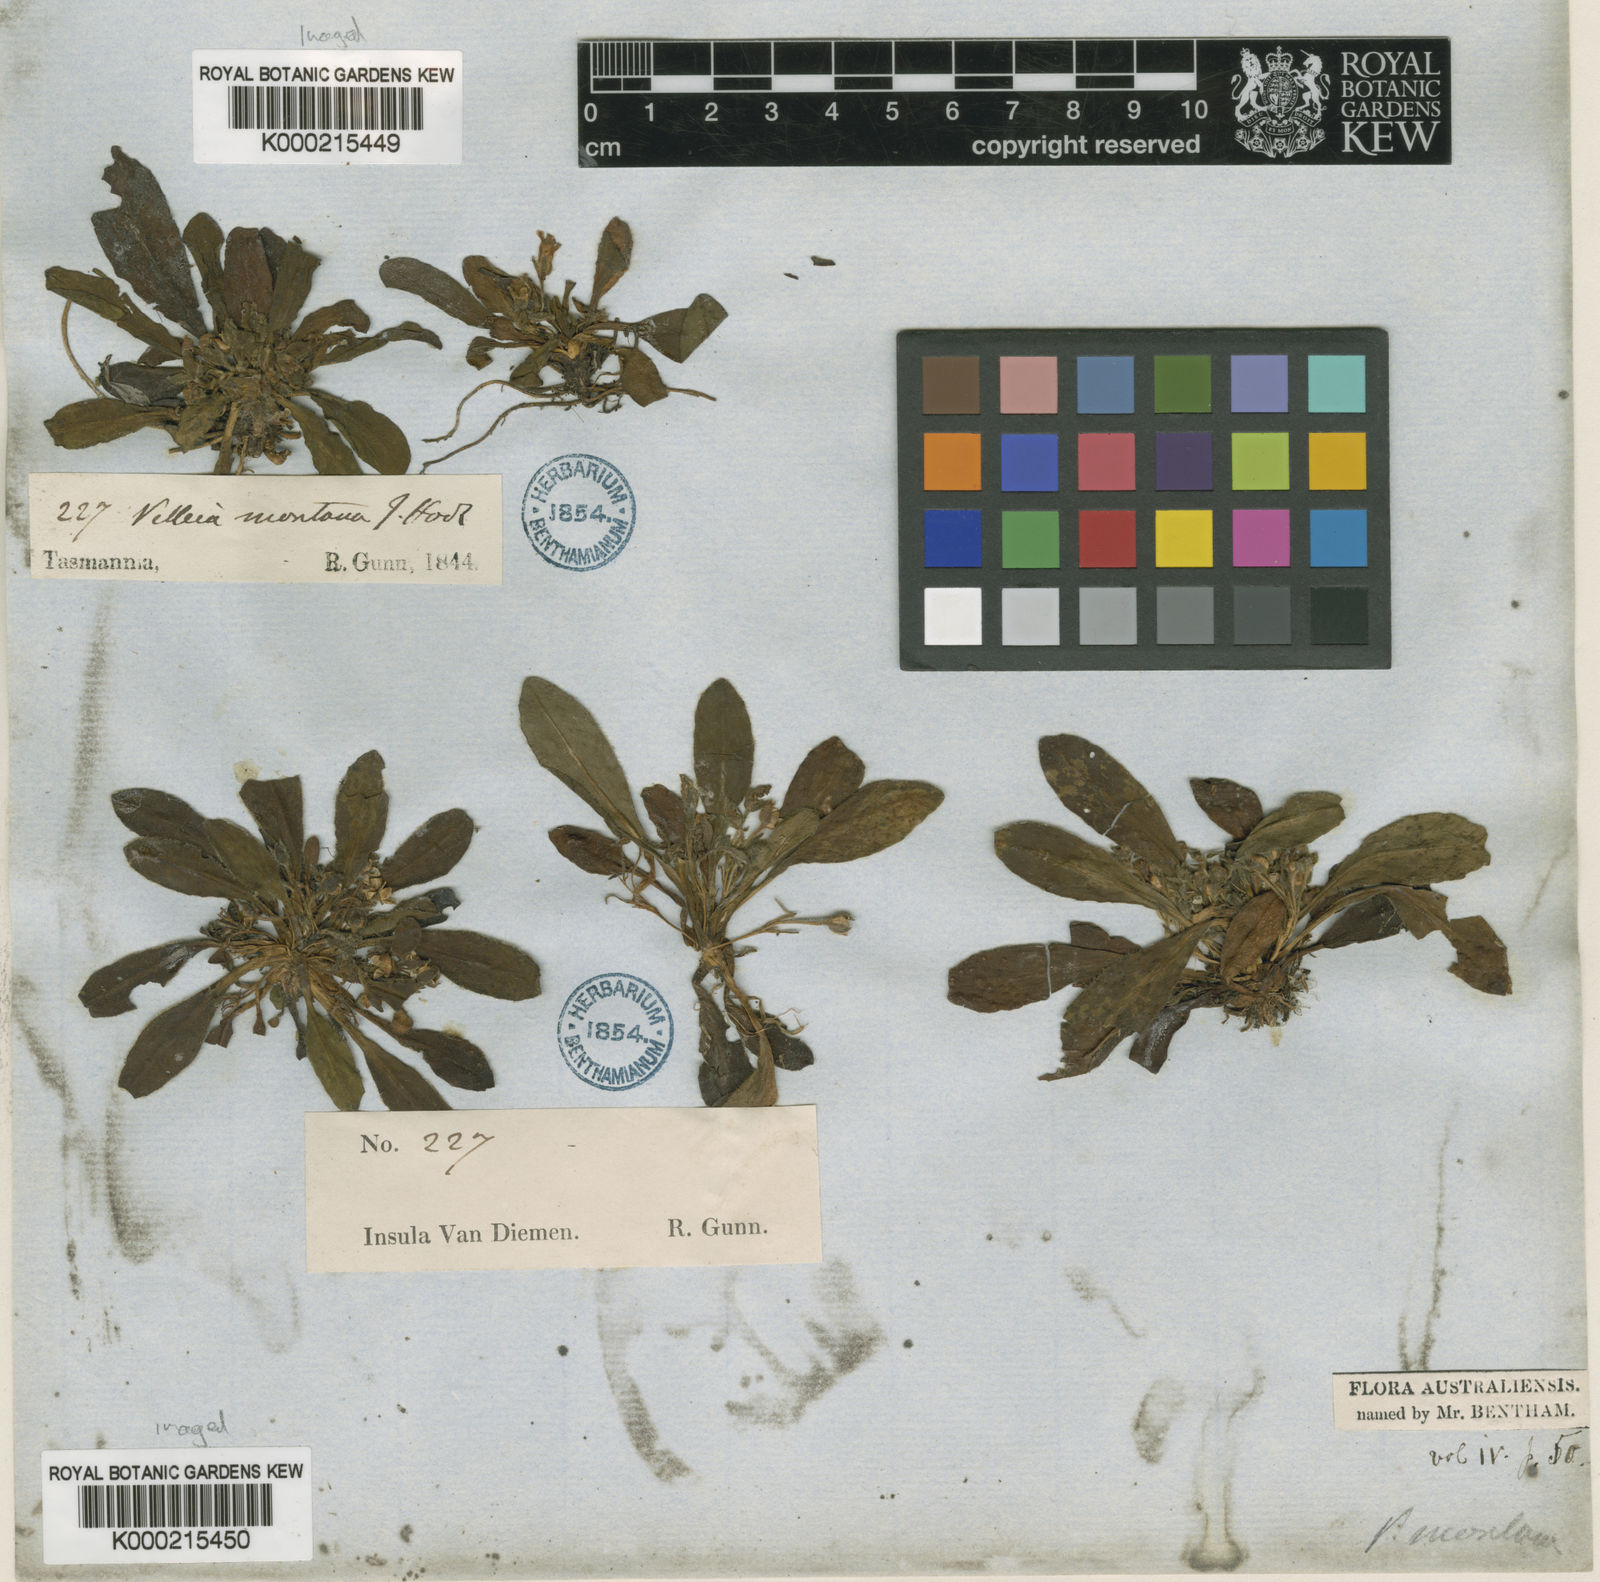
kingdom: Plantae
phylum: Tracheophyta
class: Magnoliopsida
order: Asterales
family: Goodeniaceae
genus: Goodenia
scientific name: Goodenia montana
